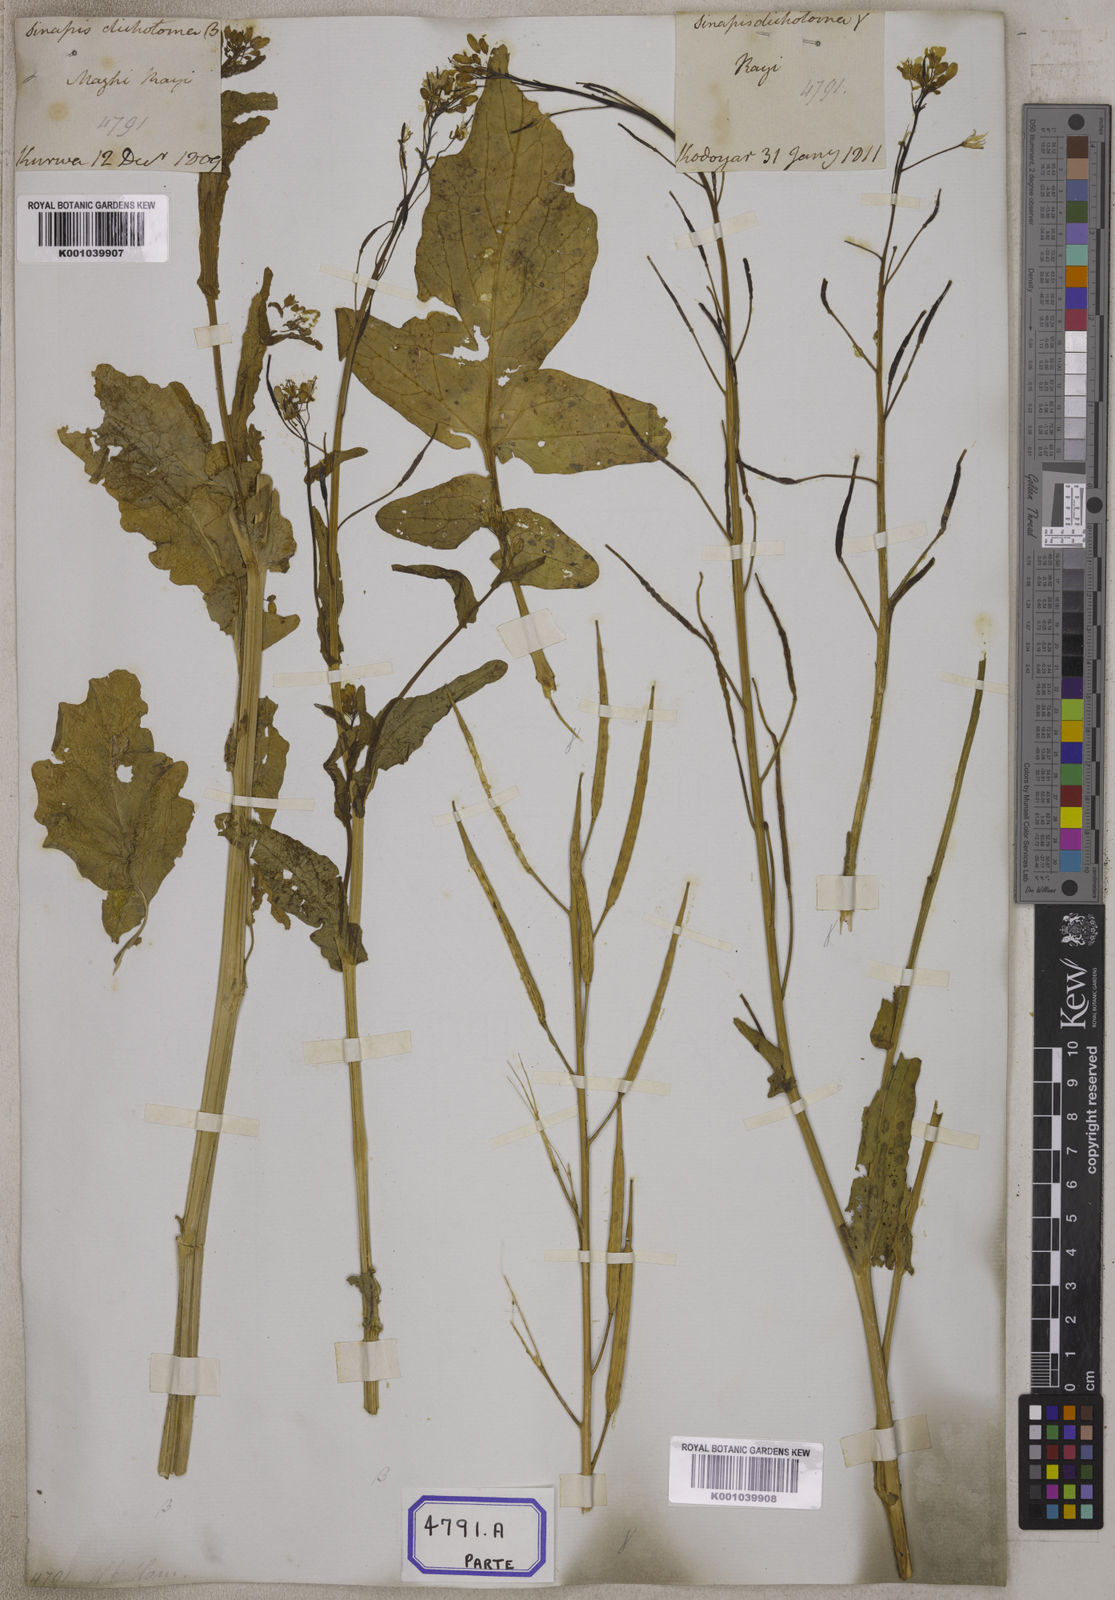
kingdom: Plantae
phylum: Tracheophyta
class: Magnoliopsida
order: Brassicales
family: Brassicaceae
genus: Brassica
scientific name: Brassica rapa
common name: Field mustard
